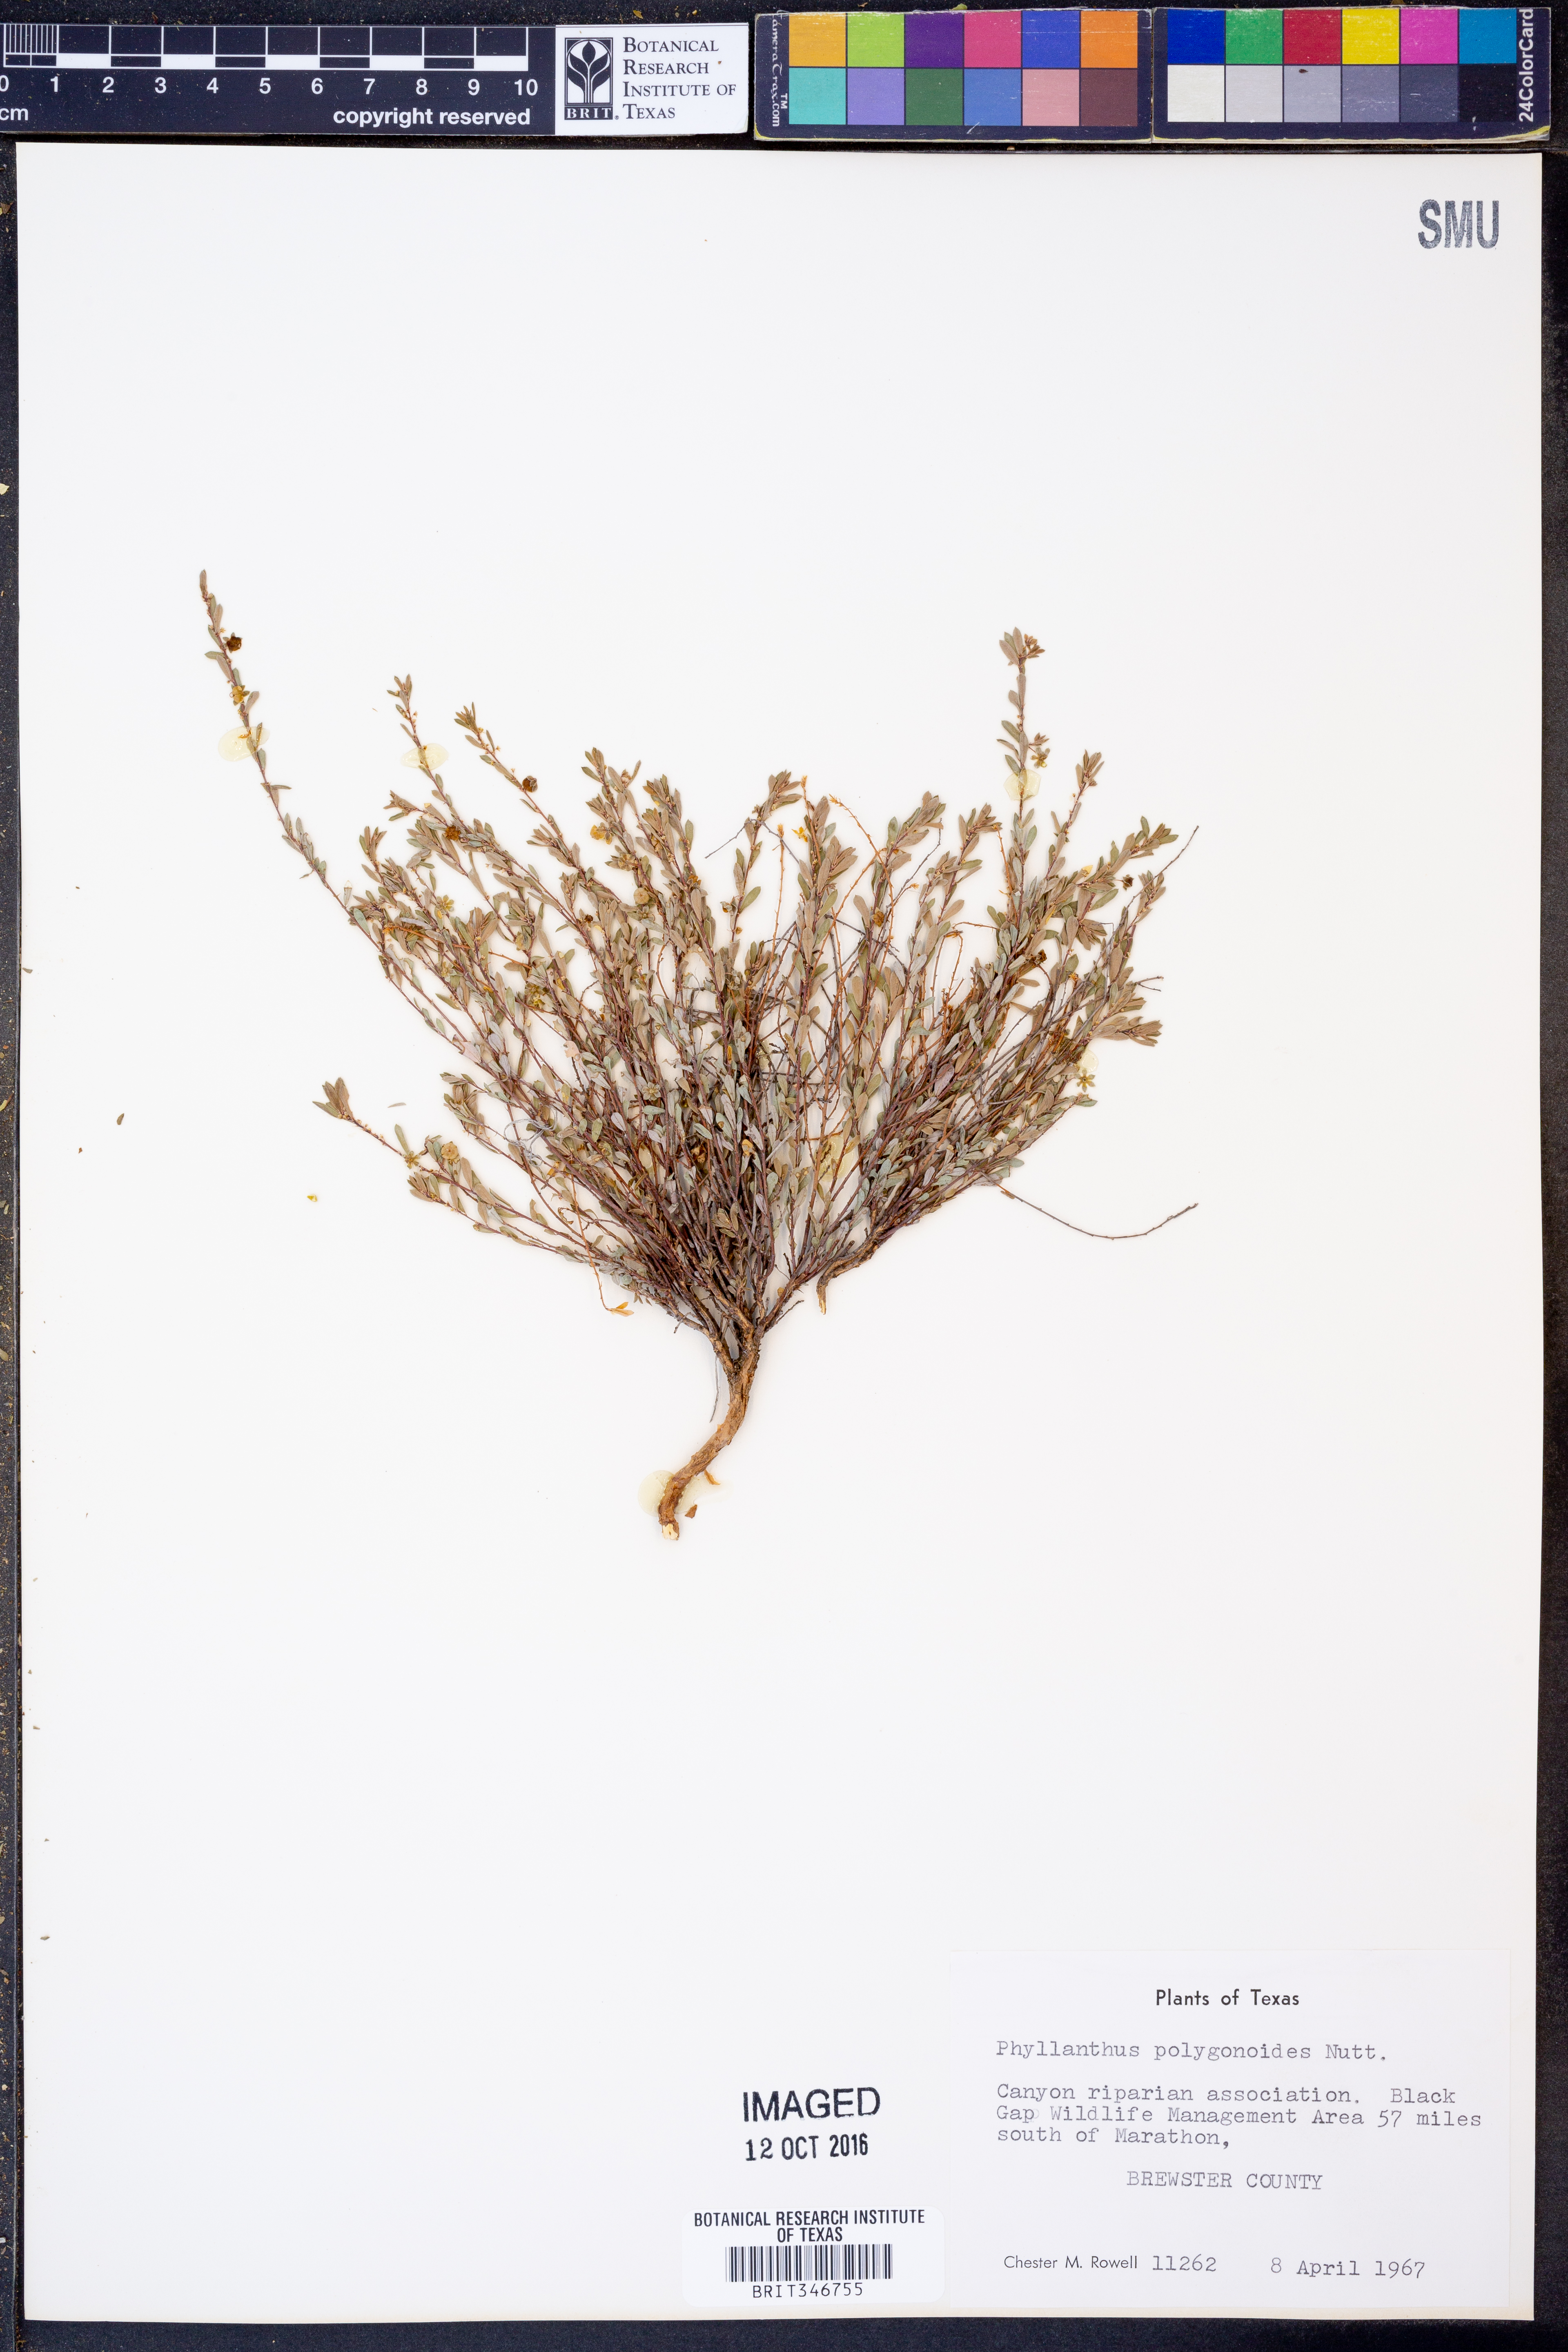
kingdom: Plantae
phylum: Tracheophyta
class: Magnoliopsida
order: Malpighiales
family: Phyllanthaceae
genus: Phyllanthus
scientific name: Phyllanthus polygonoides
